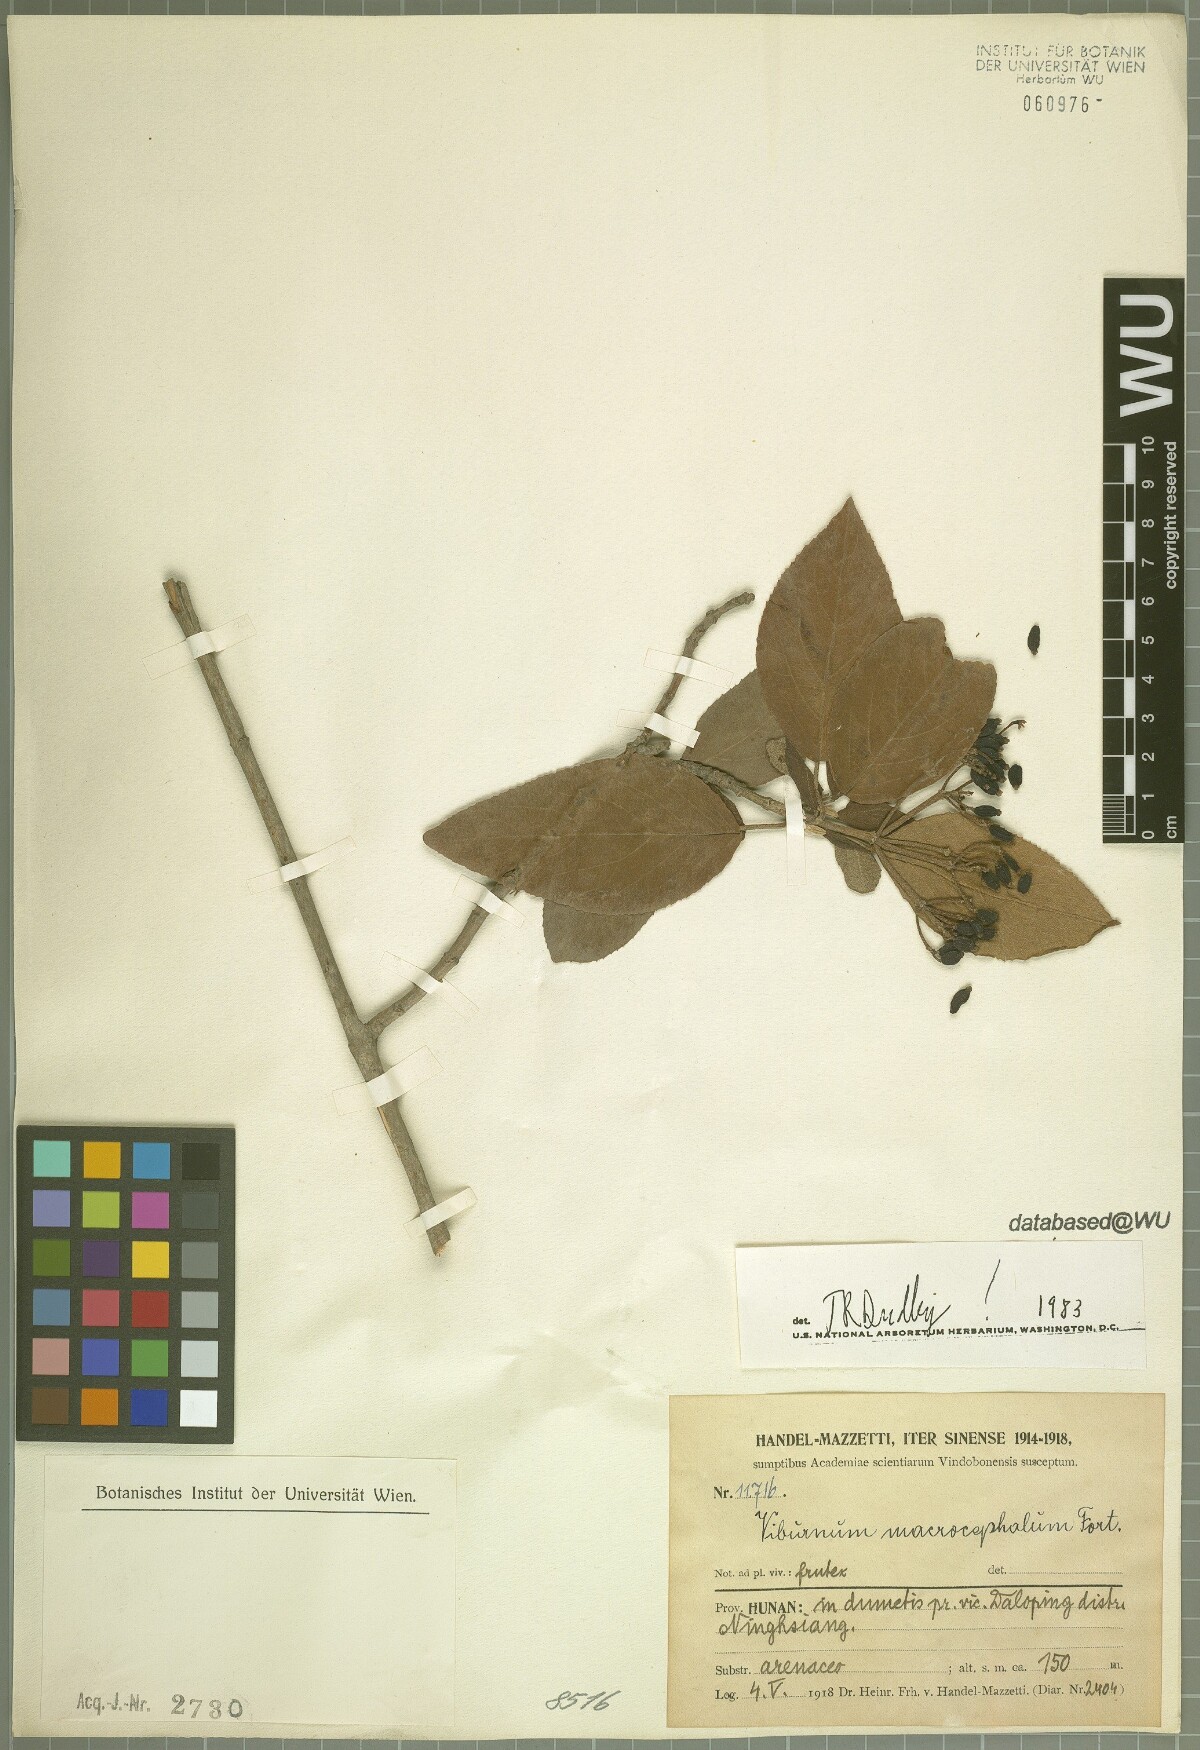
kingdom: Plantae
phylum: Tracheophyta
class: Magnoliopsida
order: Dipsacales
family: Viburnaceae
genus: Viburnum
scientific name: Viburnum macrocephalum
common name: Chinese snowball viburnum
